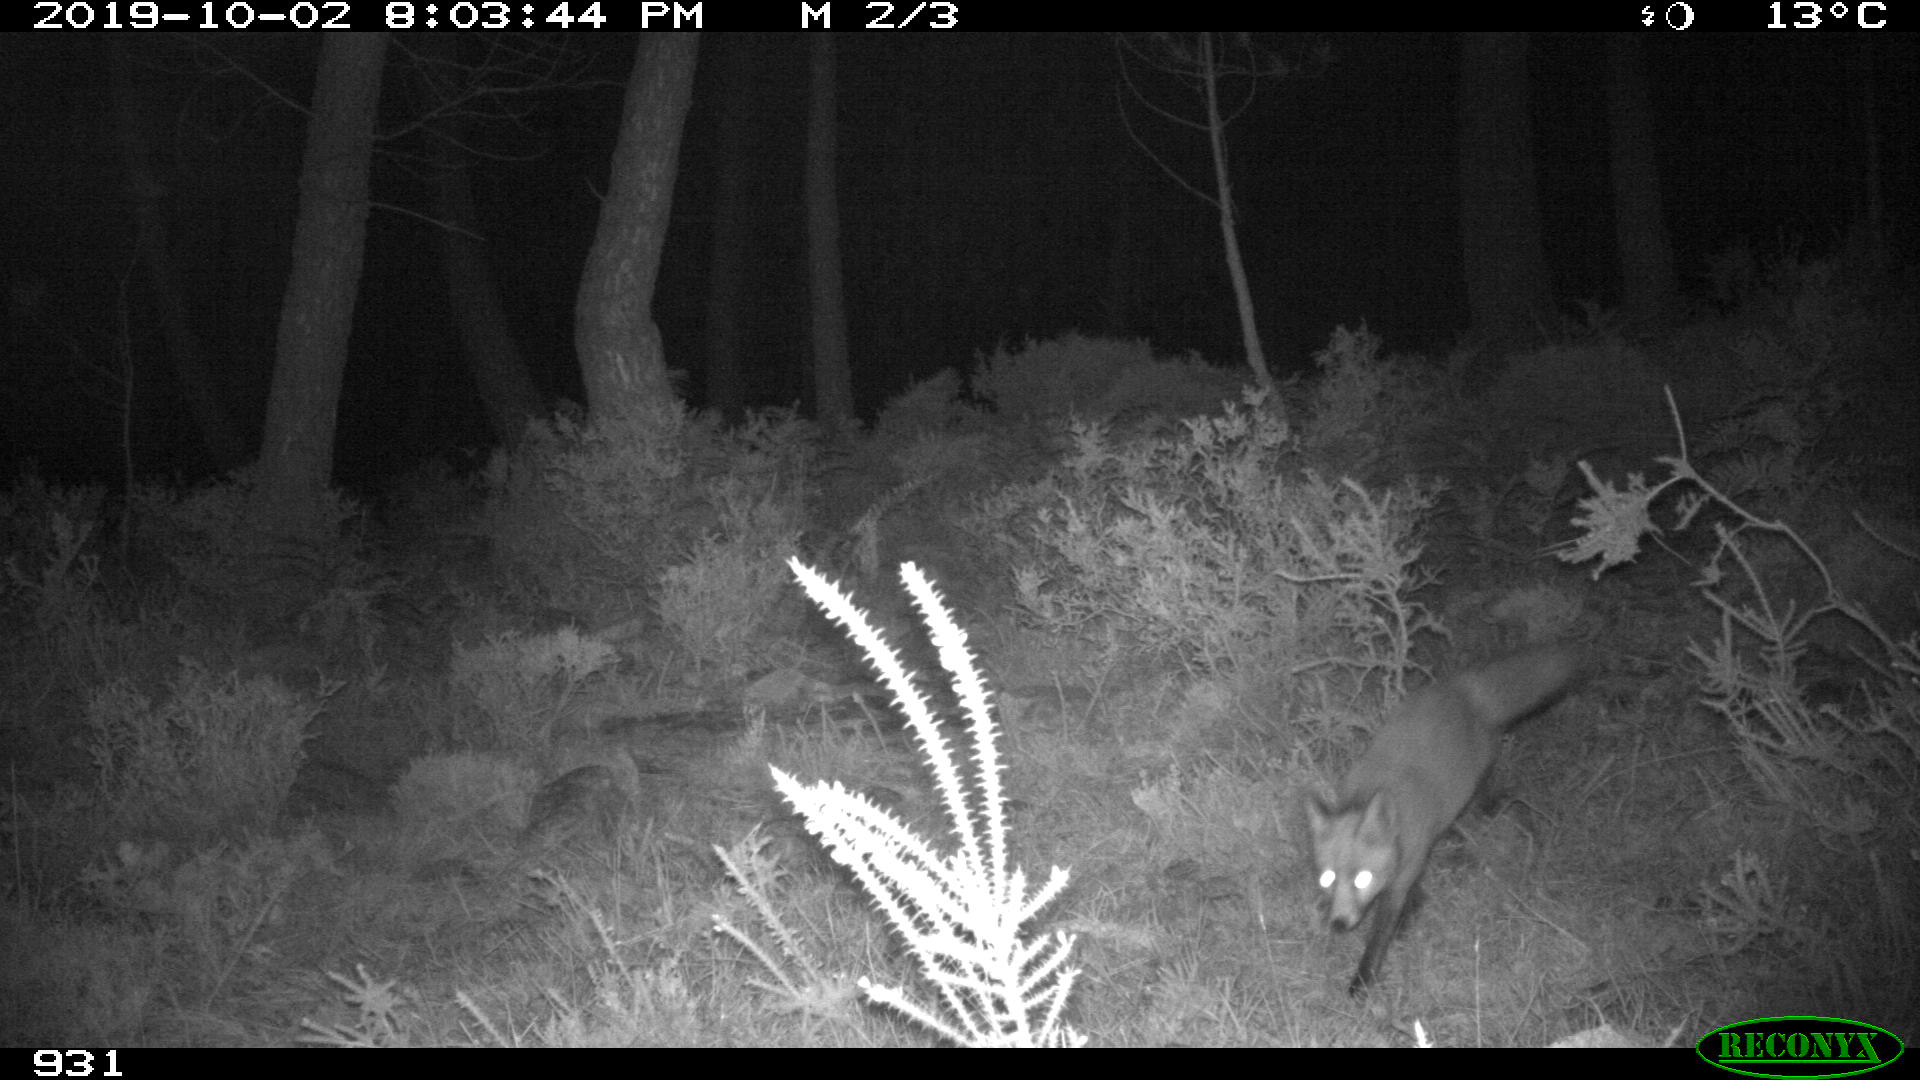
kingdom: Animalia
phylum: Chordata
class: Mammalia
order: Carnivora
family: Canidae
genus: Vulpes
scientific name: Vulpes vulpes
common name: Red fox
